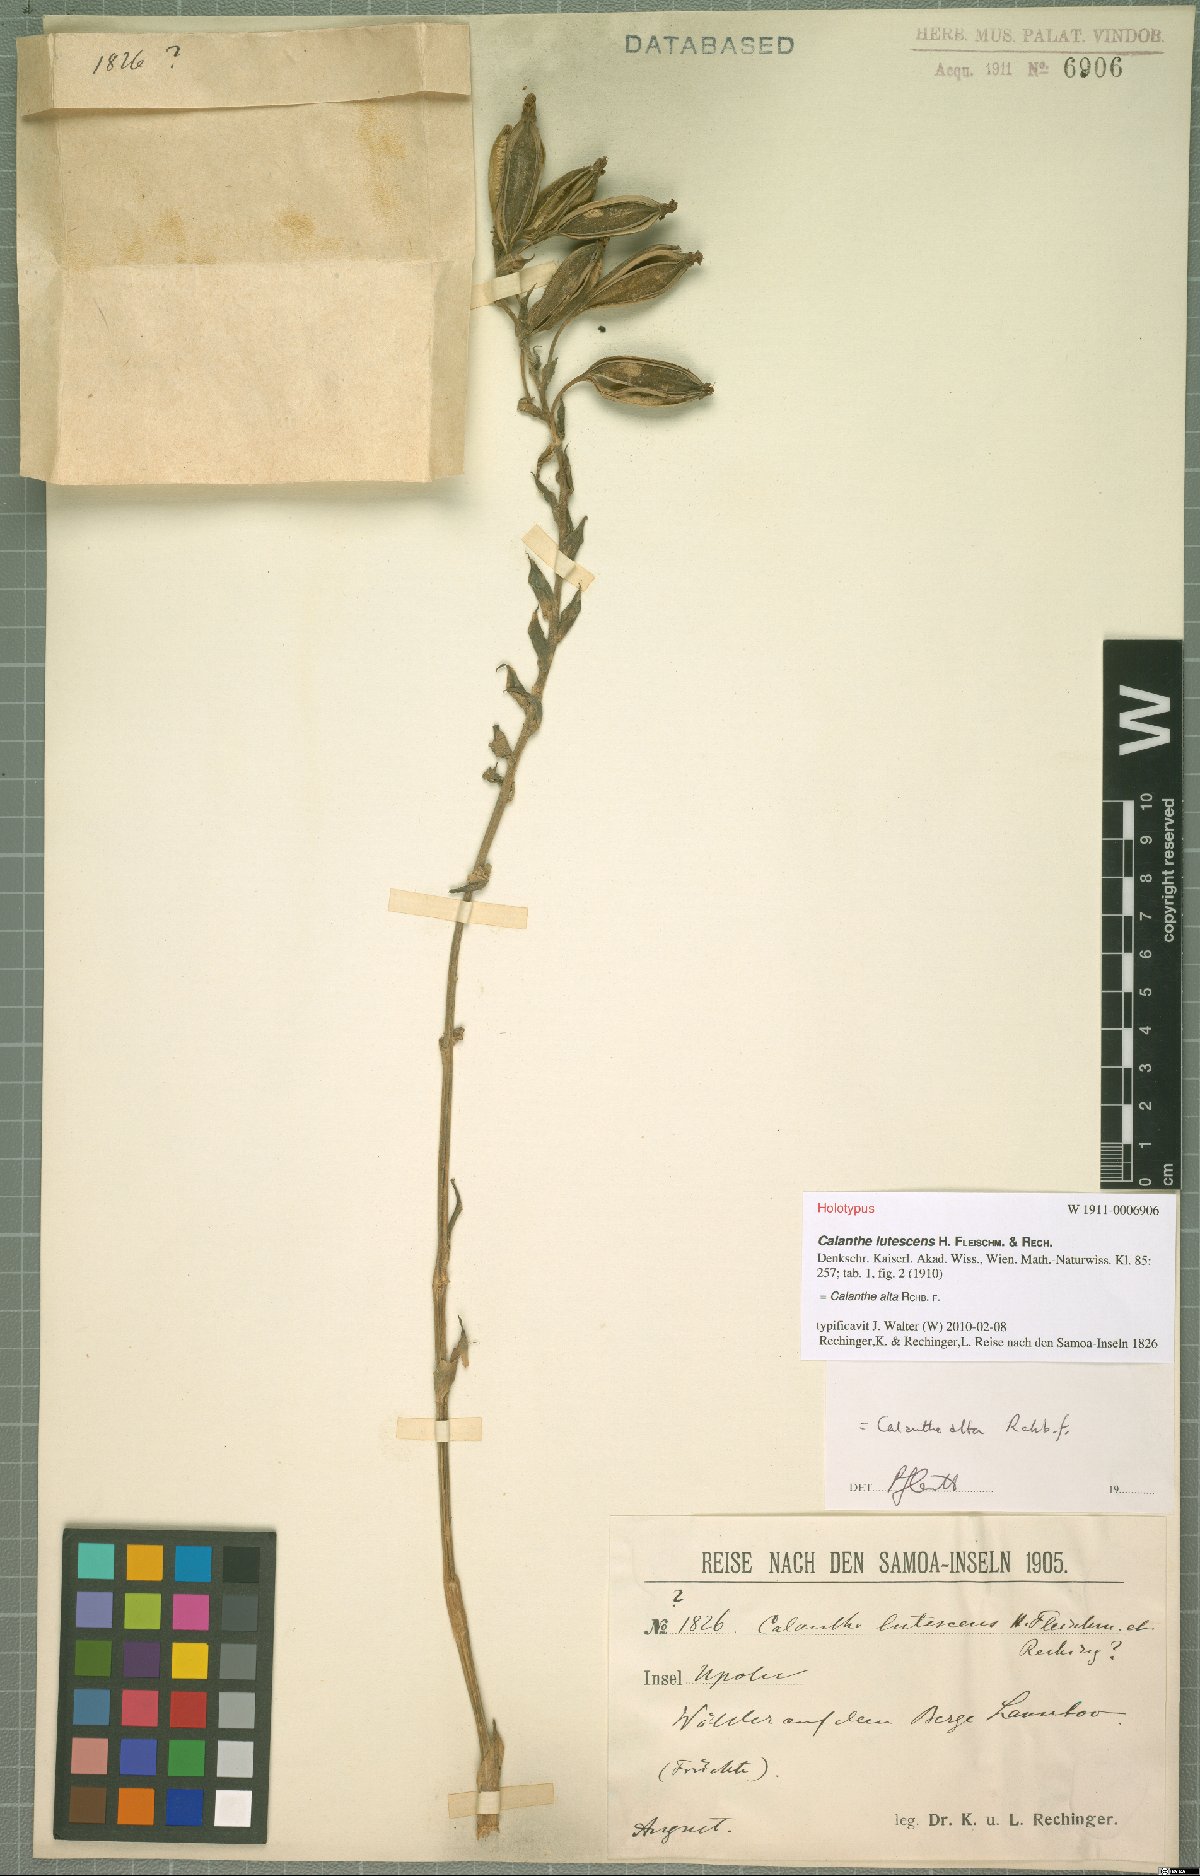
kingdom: Plantae
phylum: Tracheophyta
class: Liliopsida
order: Asparagales
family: Orchidaceae
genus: Calanthe
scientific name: Calanthe alta
